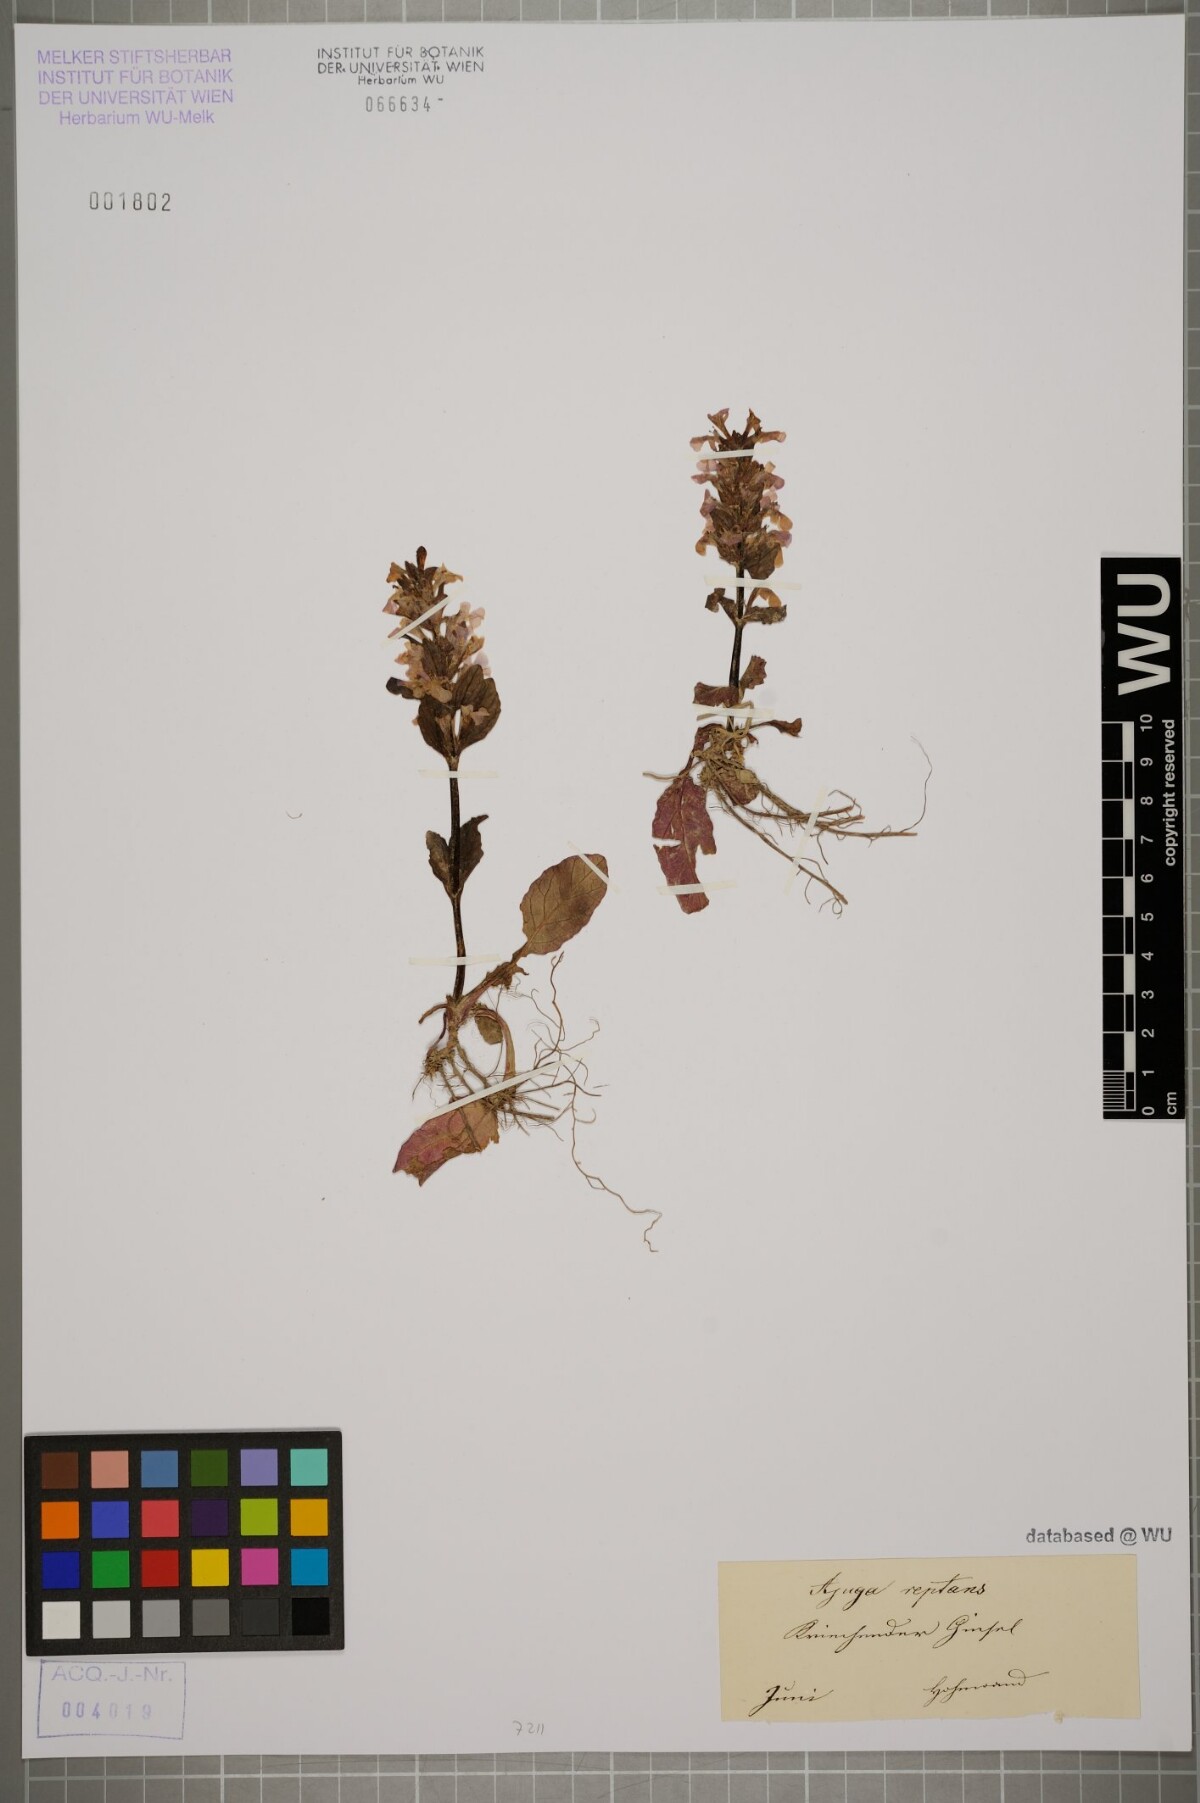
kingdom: Plantae
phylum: Tracheophyta
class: Magnoliopsida
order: Lamiales
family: Lamiaceae
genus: Ajuga
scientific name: Ajuga reptans
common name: Bugle
